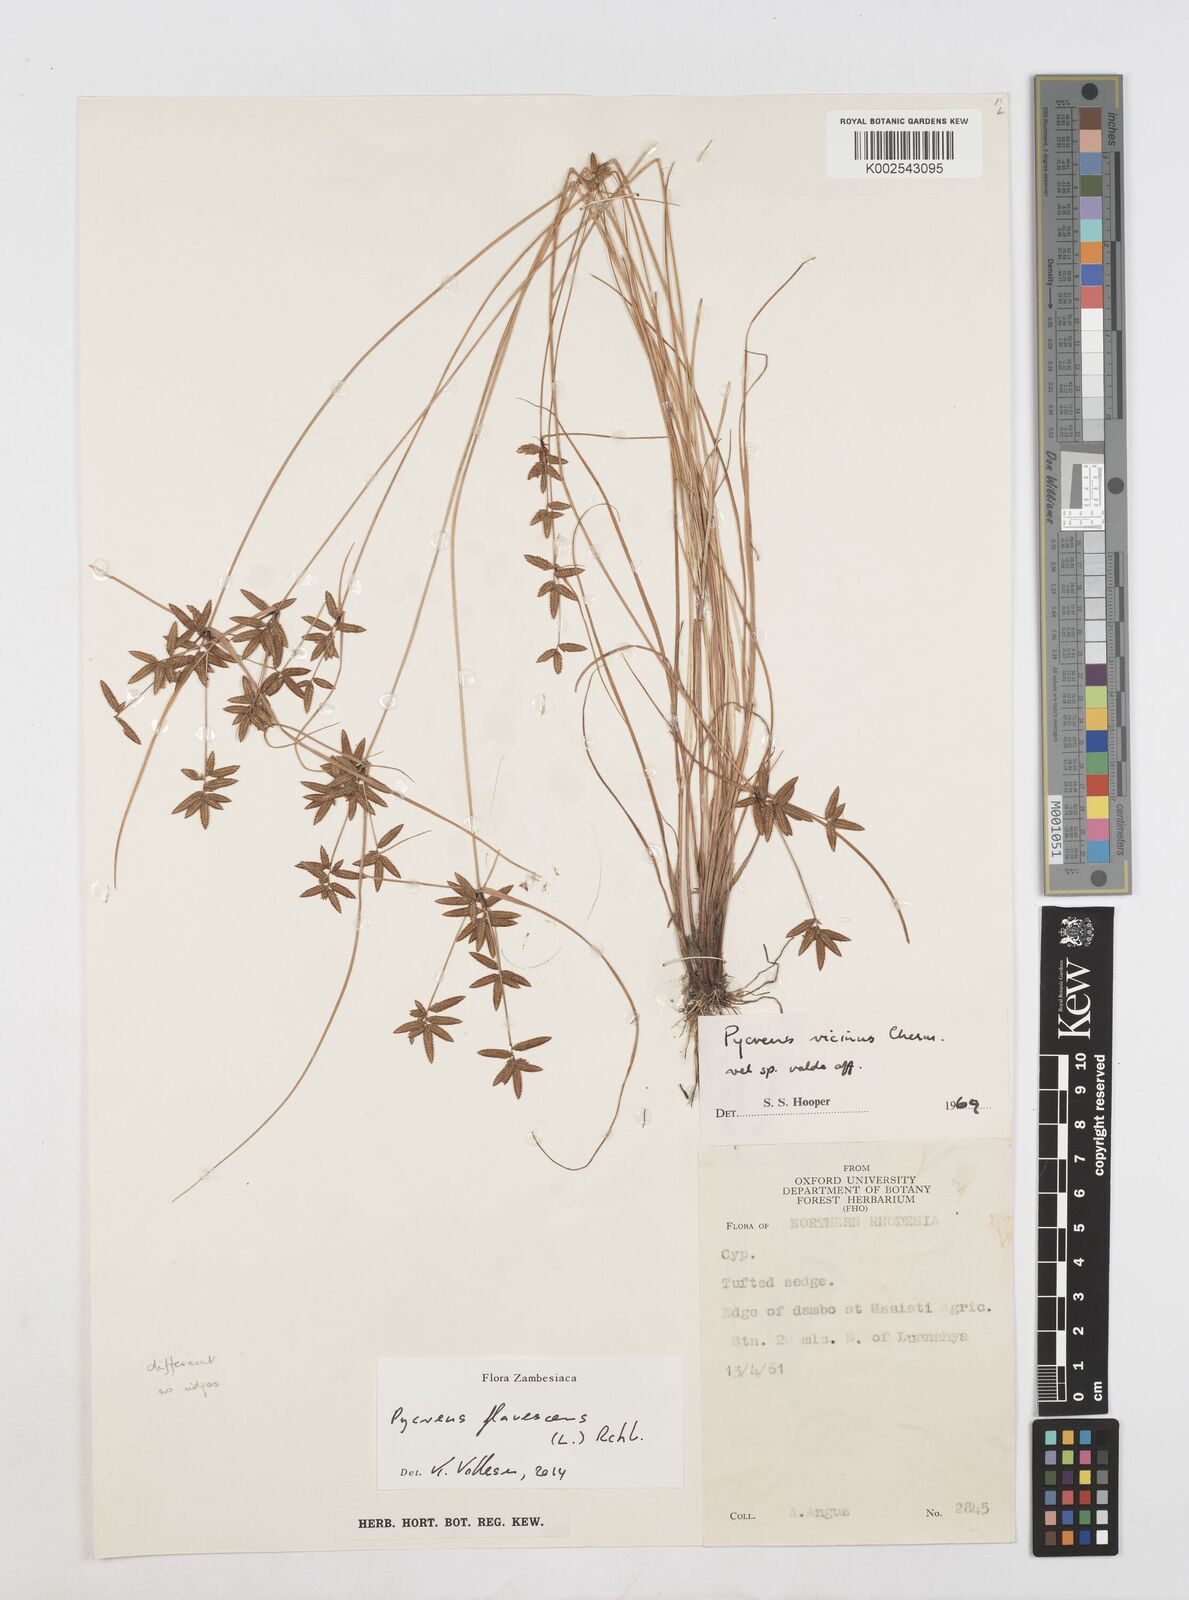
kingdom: Plantae
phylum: Tracheophyta
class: Liliopsida
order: Poales
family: Cyperaceae
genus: Cyperus
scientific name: Cyperus flavescens
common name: Yellow galingale
